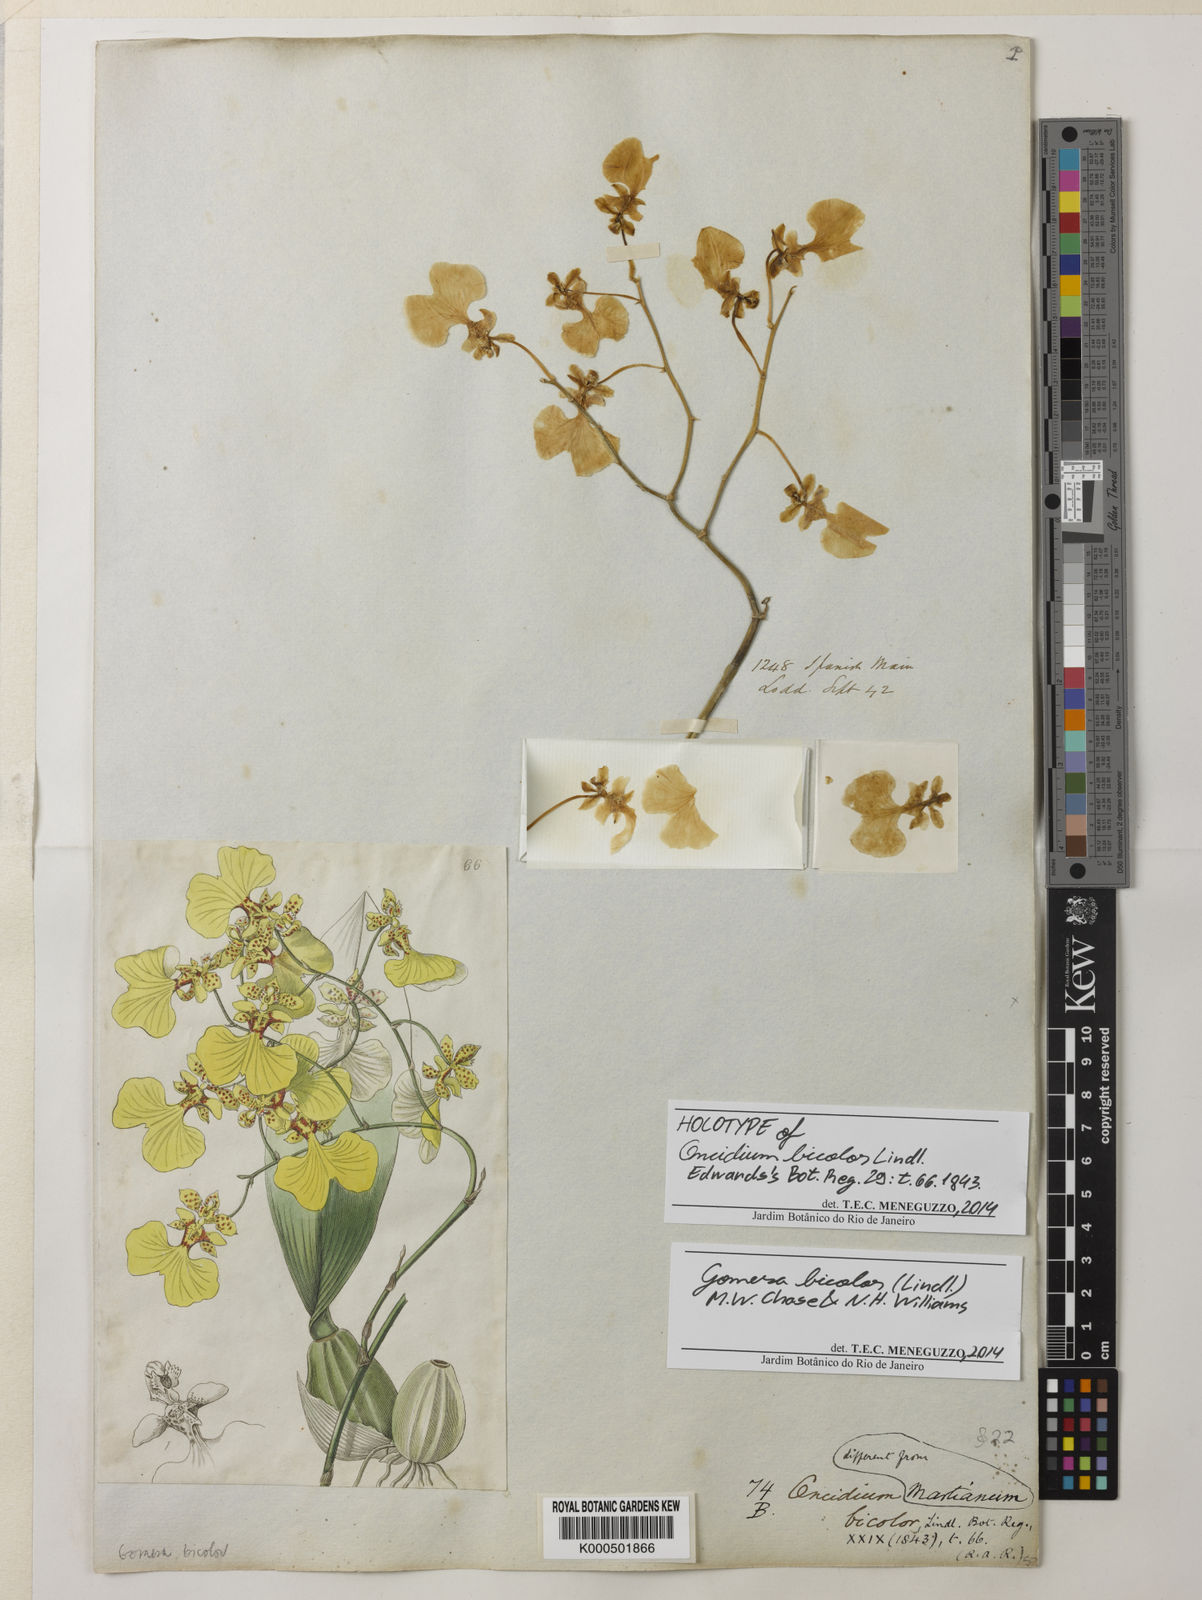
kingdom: Plantae
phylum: Tracheophyta
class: Liliopsida
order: Asparagales
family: Orchidaceae
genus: Gomesa
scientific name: Gomesa bicolor
